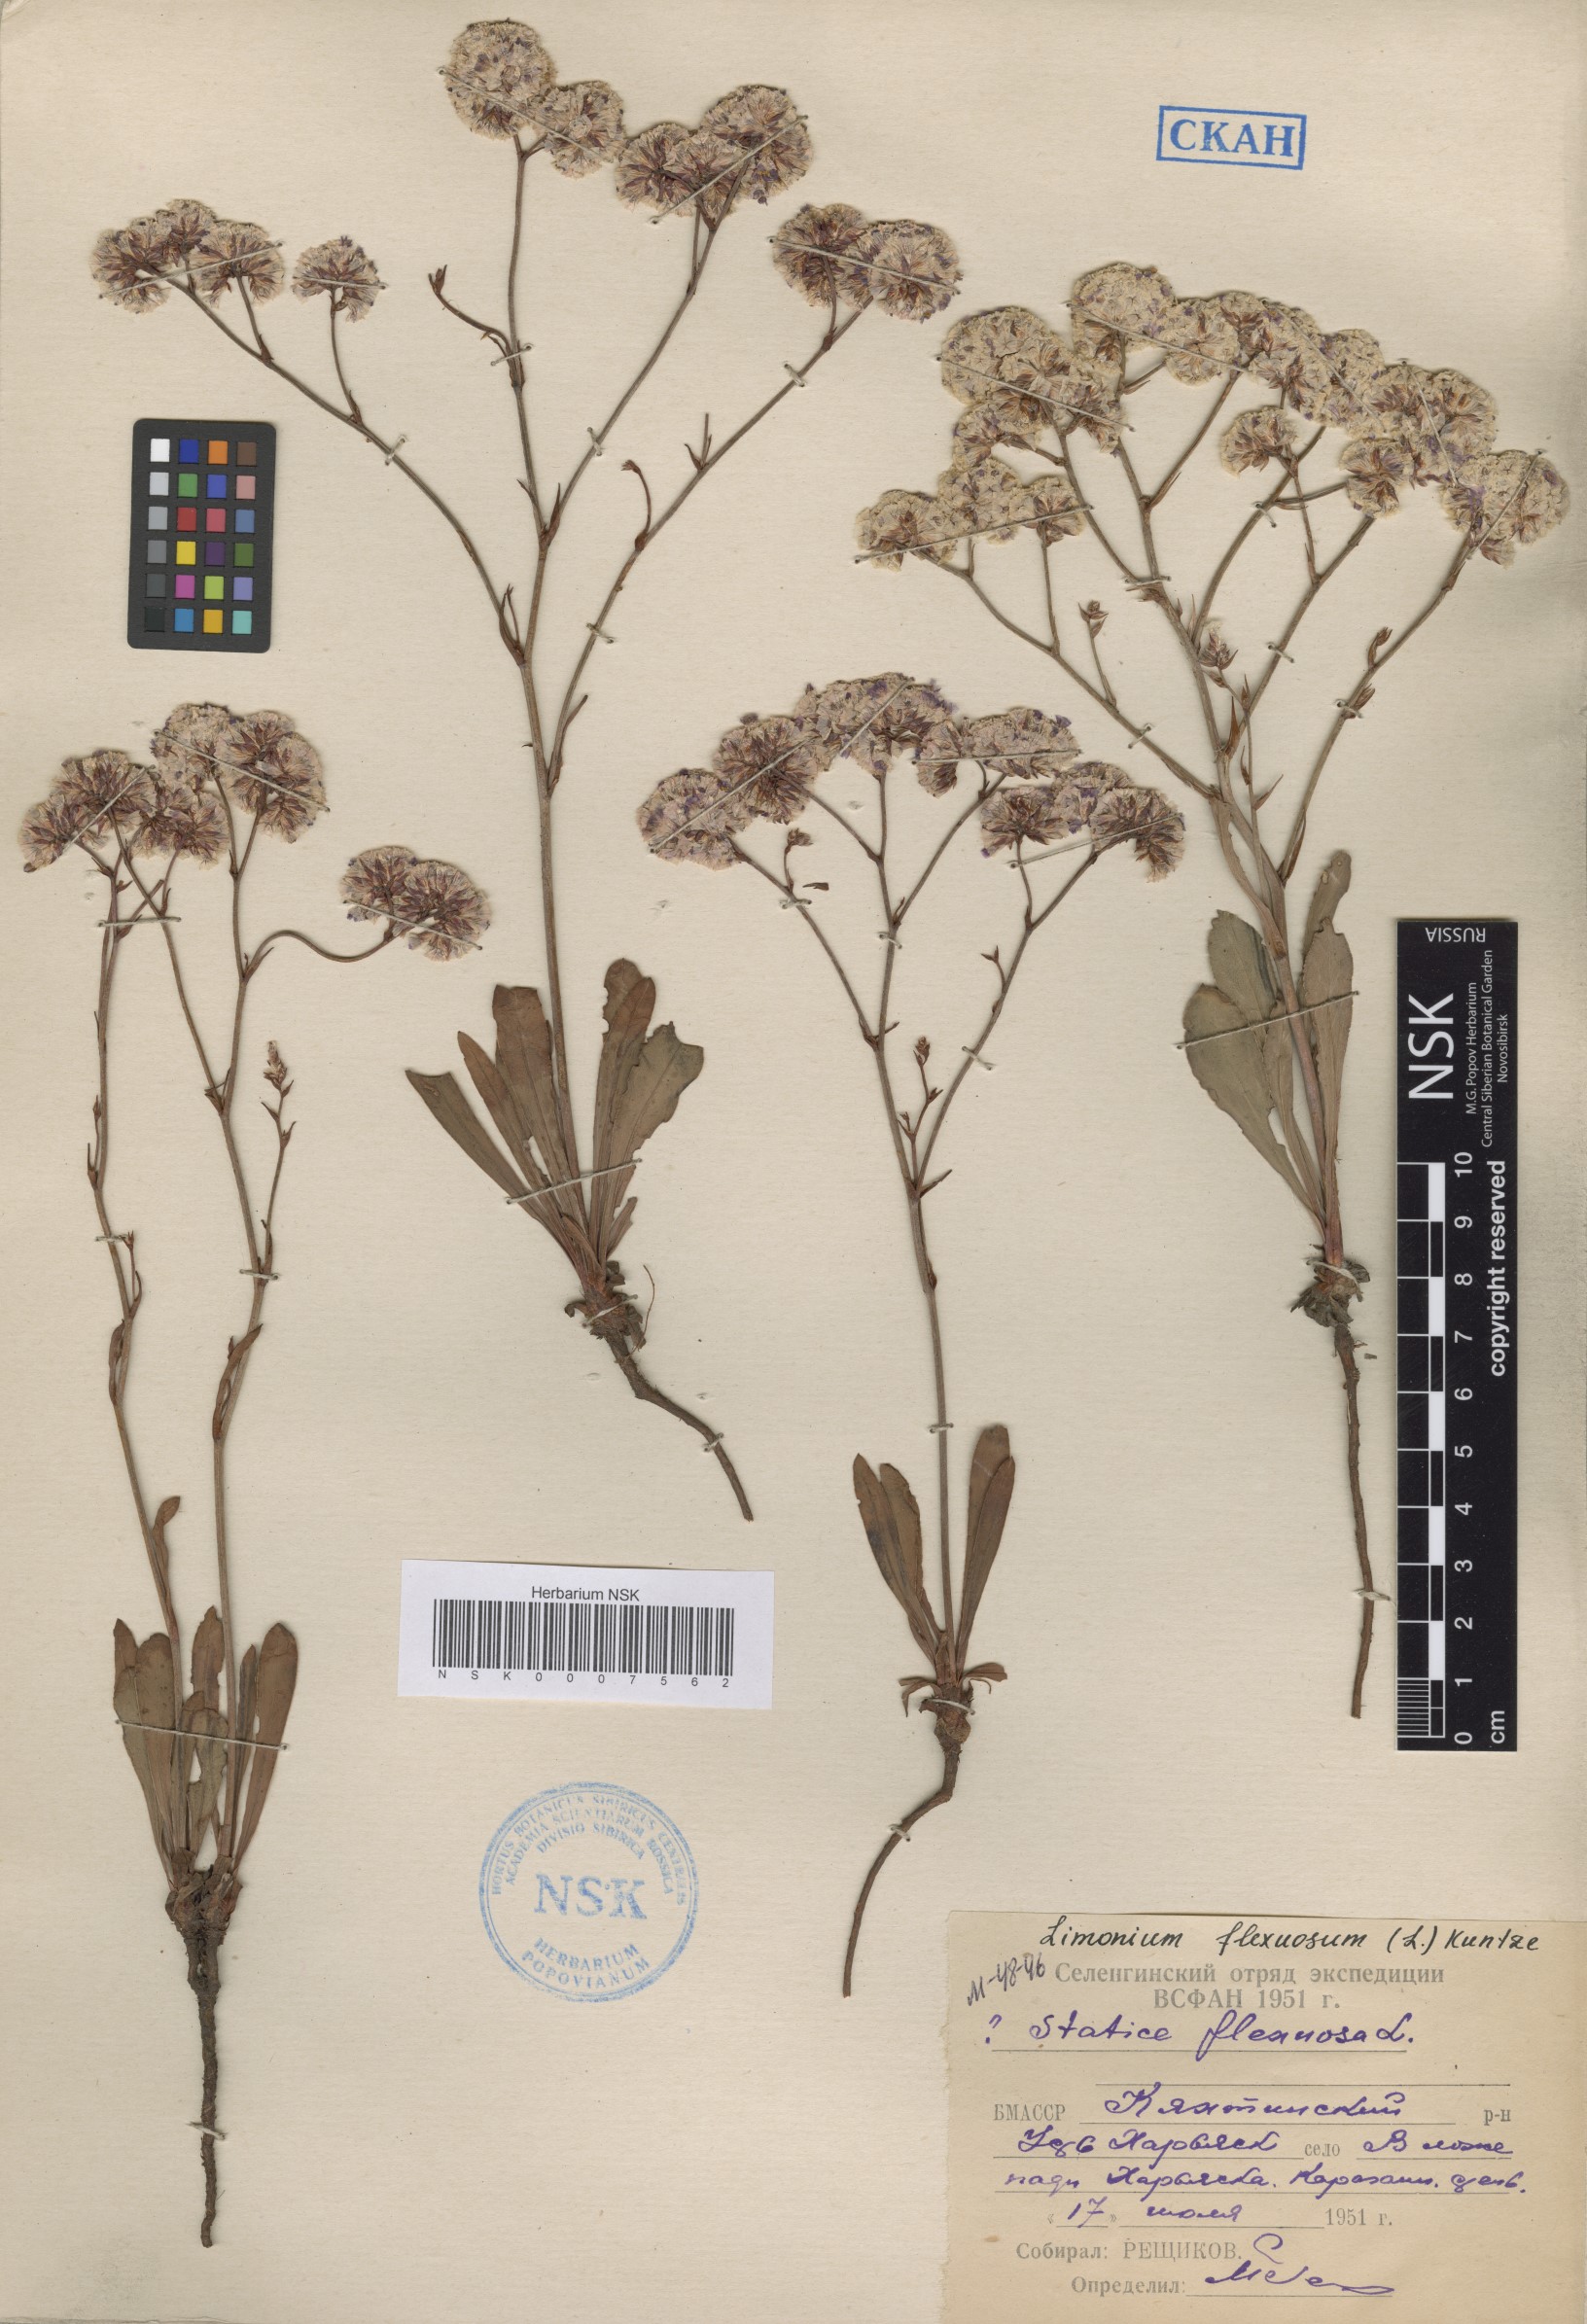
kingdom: Plantae
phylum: Tracheophyta
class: Magnoliopsida
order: Caryophyllales
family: Plumbaginaceae
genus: Limonium
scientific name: Limonium flexuosum
